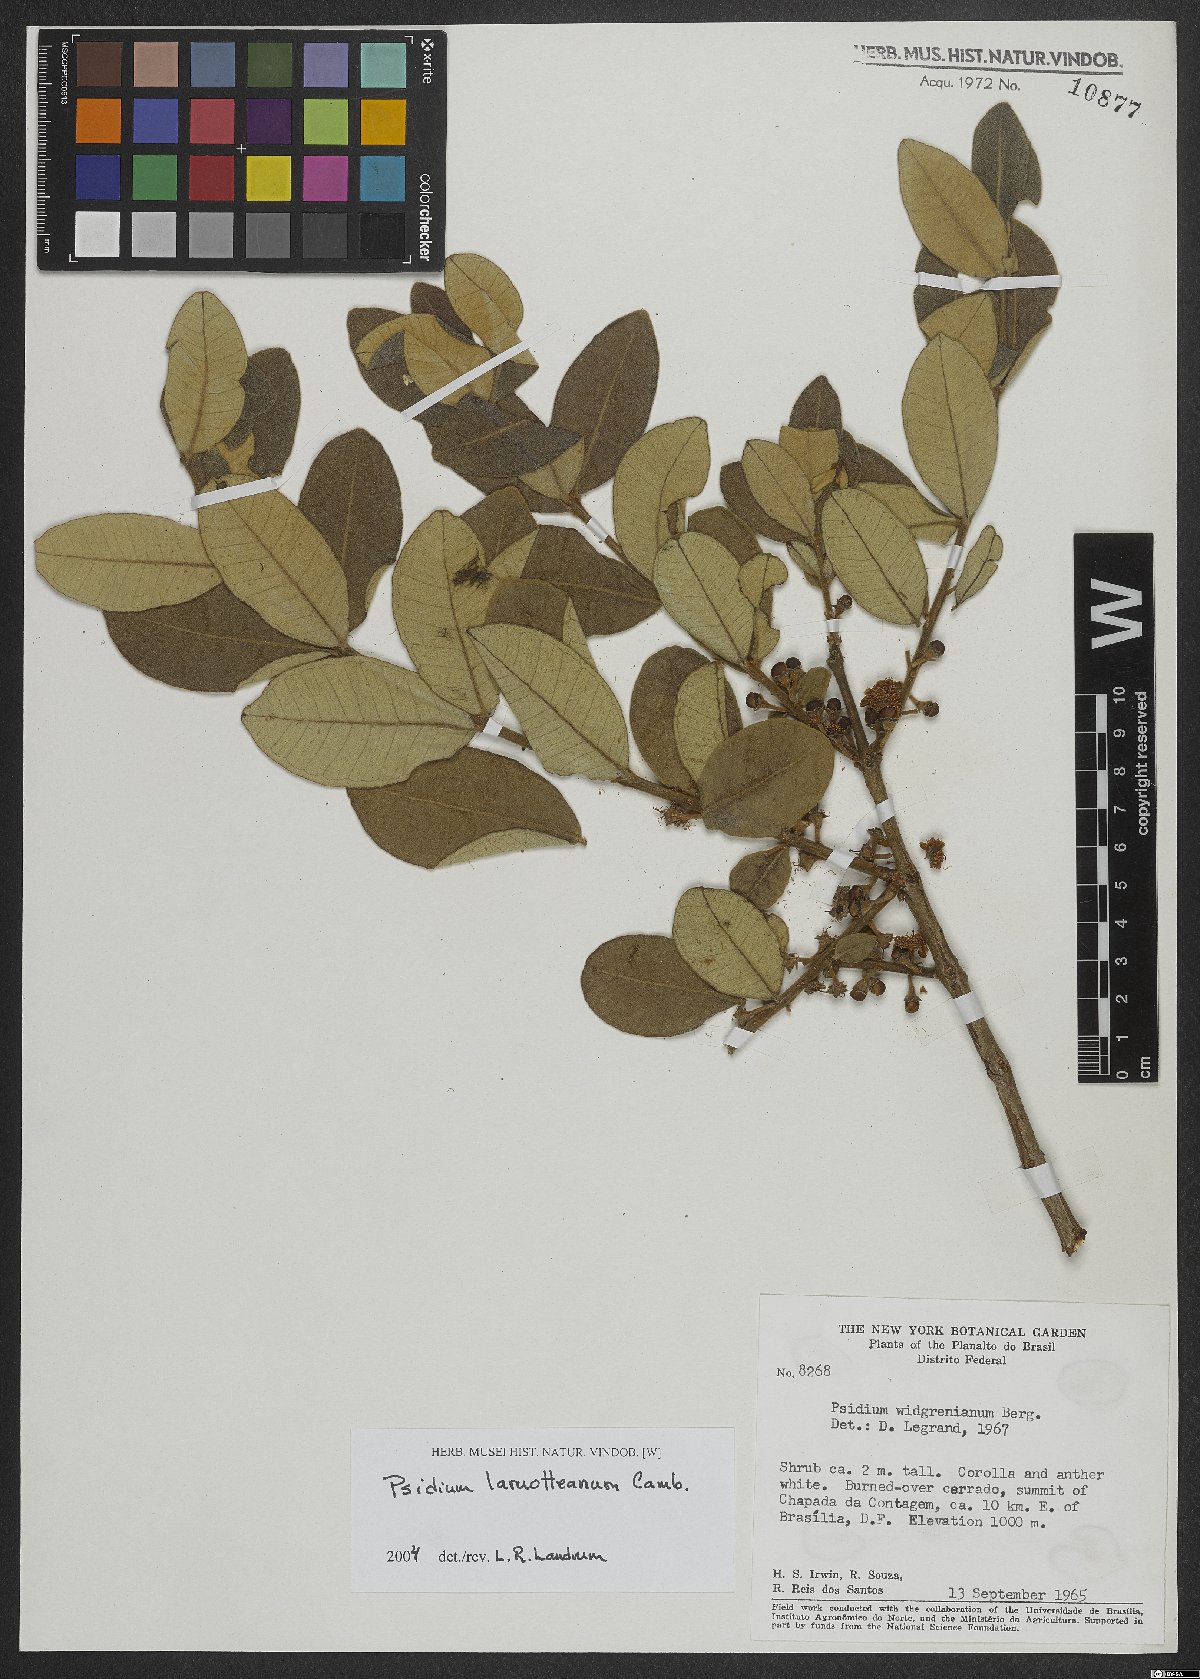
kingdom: Plantae
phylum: Tracheophyta
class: Magnoliopsida
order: Myrtales
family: Myrtaceae
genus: Psidium
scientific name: Psidium larueotteanum
